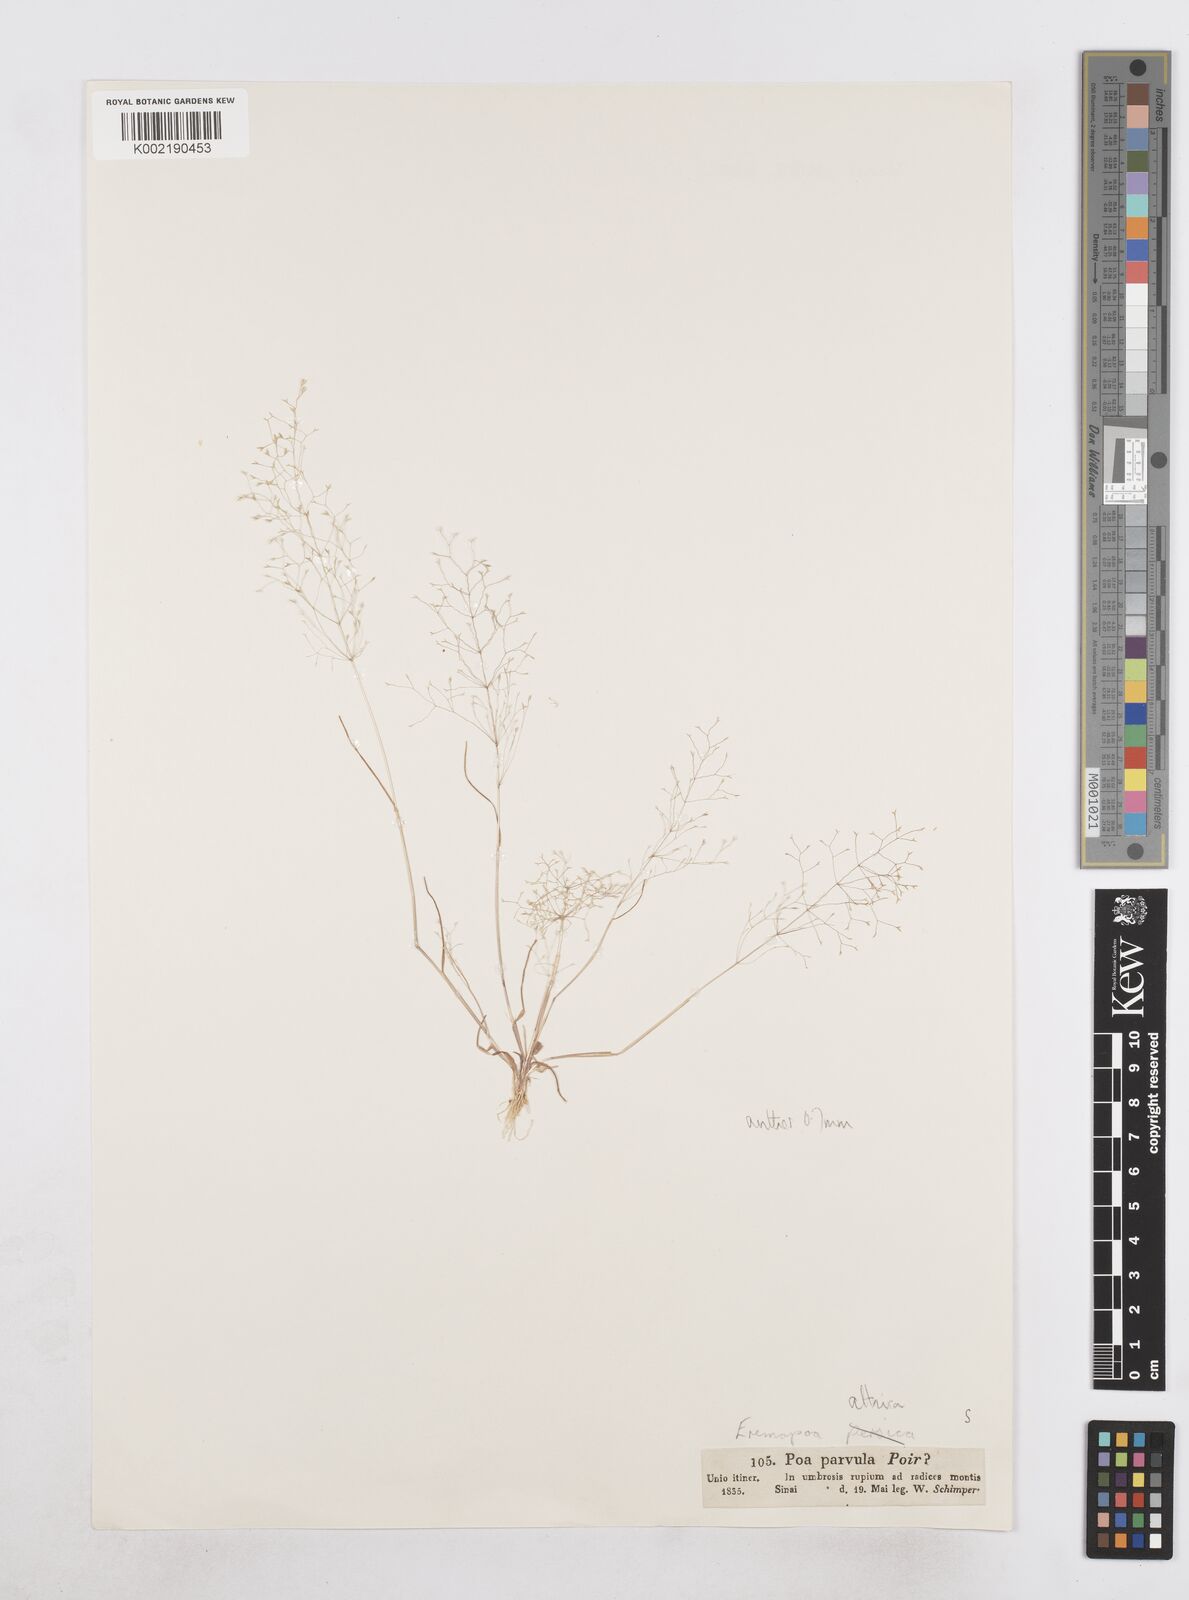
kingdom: Plantae
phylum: Tracheophyta
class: Liliopsida
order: Poales
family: Poaceae
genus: Poa
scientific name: Poa diaphora
